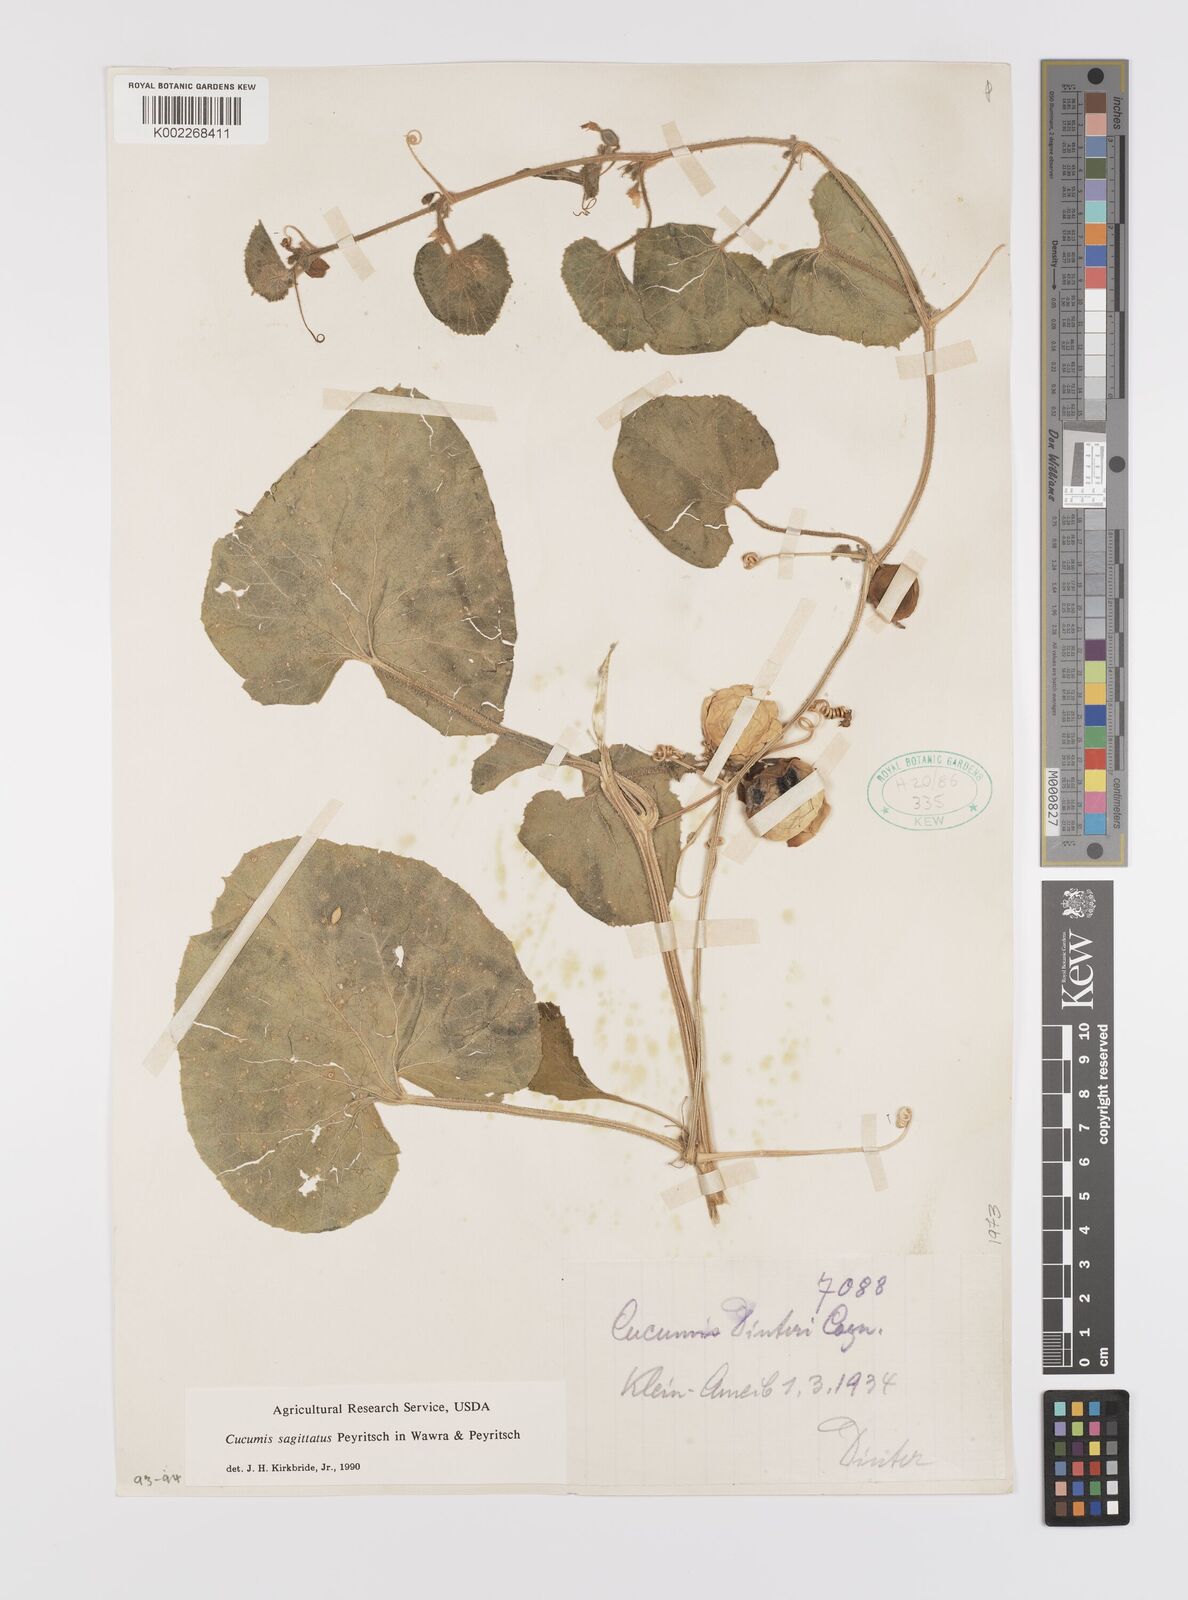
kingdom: Plantae
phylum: Tracheophyta
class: Magnoliopsida
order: Cucurbitales
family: Cucurbitaceae
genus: Cucumis
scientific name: Cucumis sagittatus
